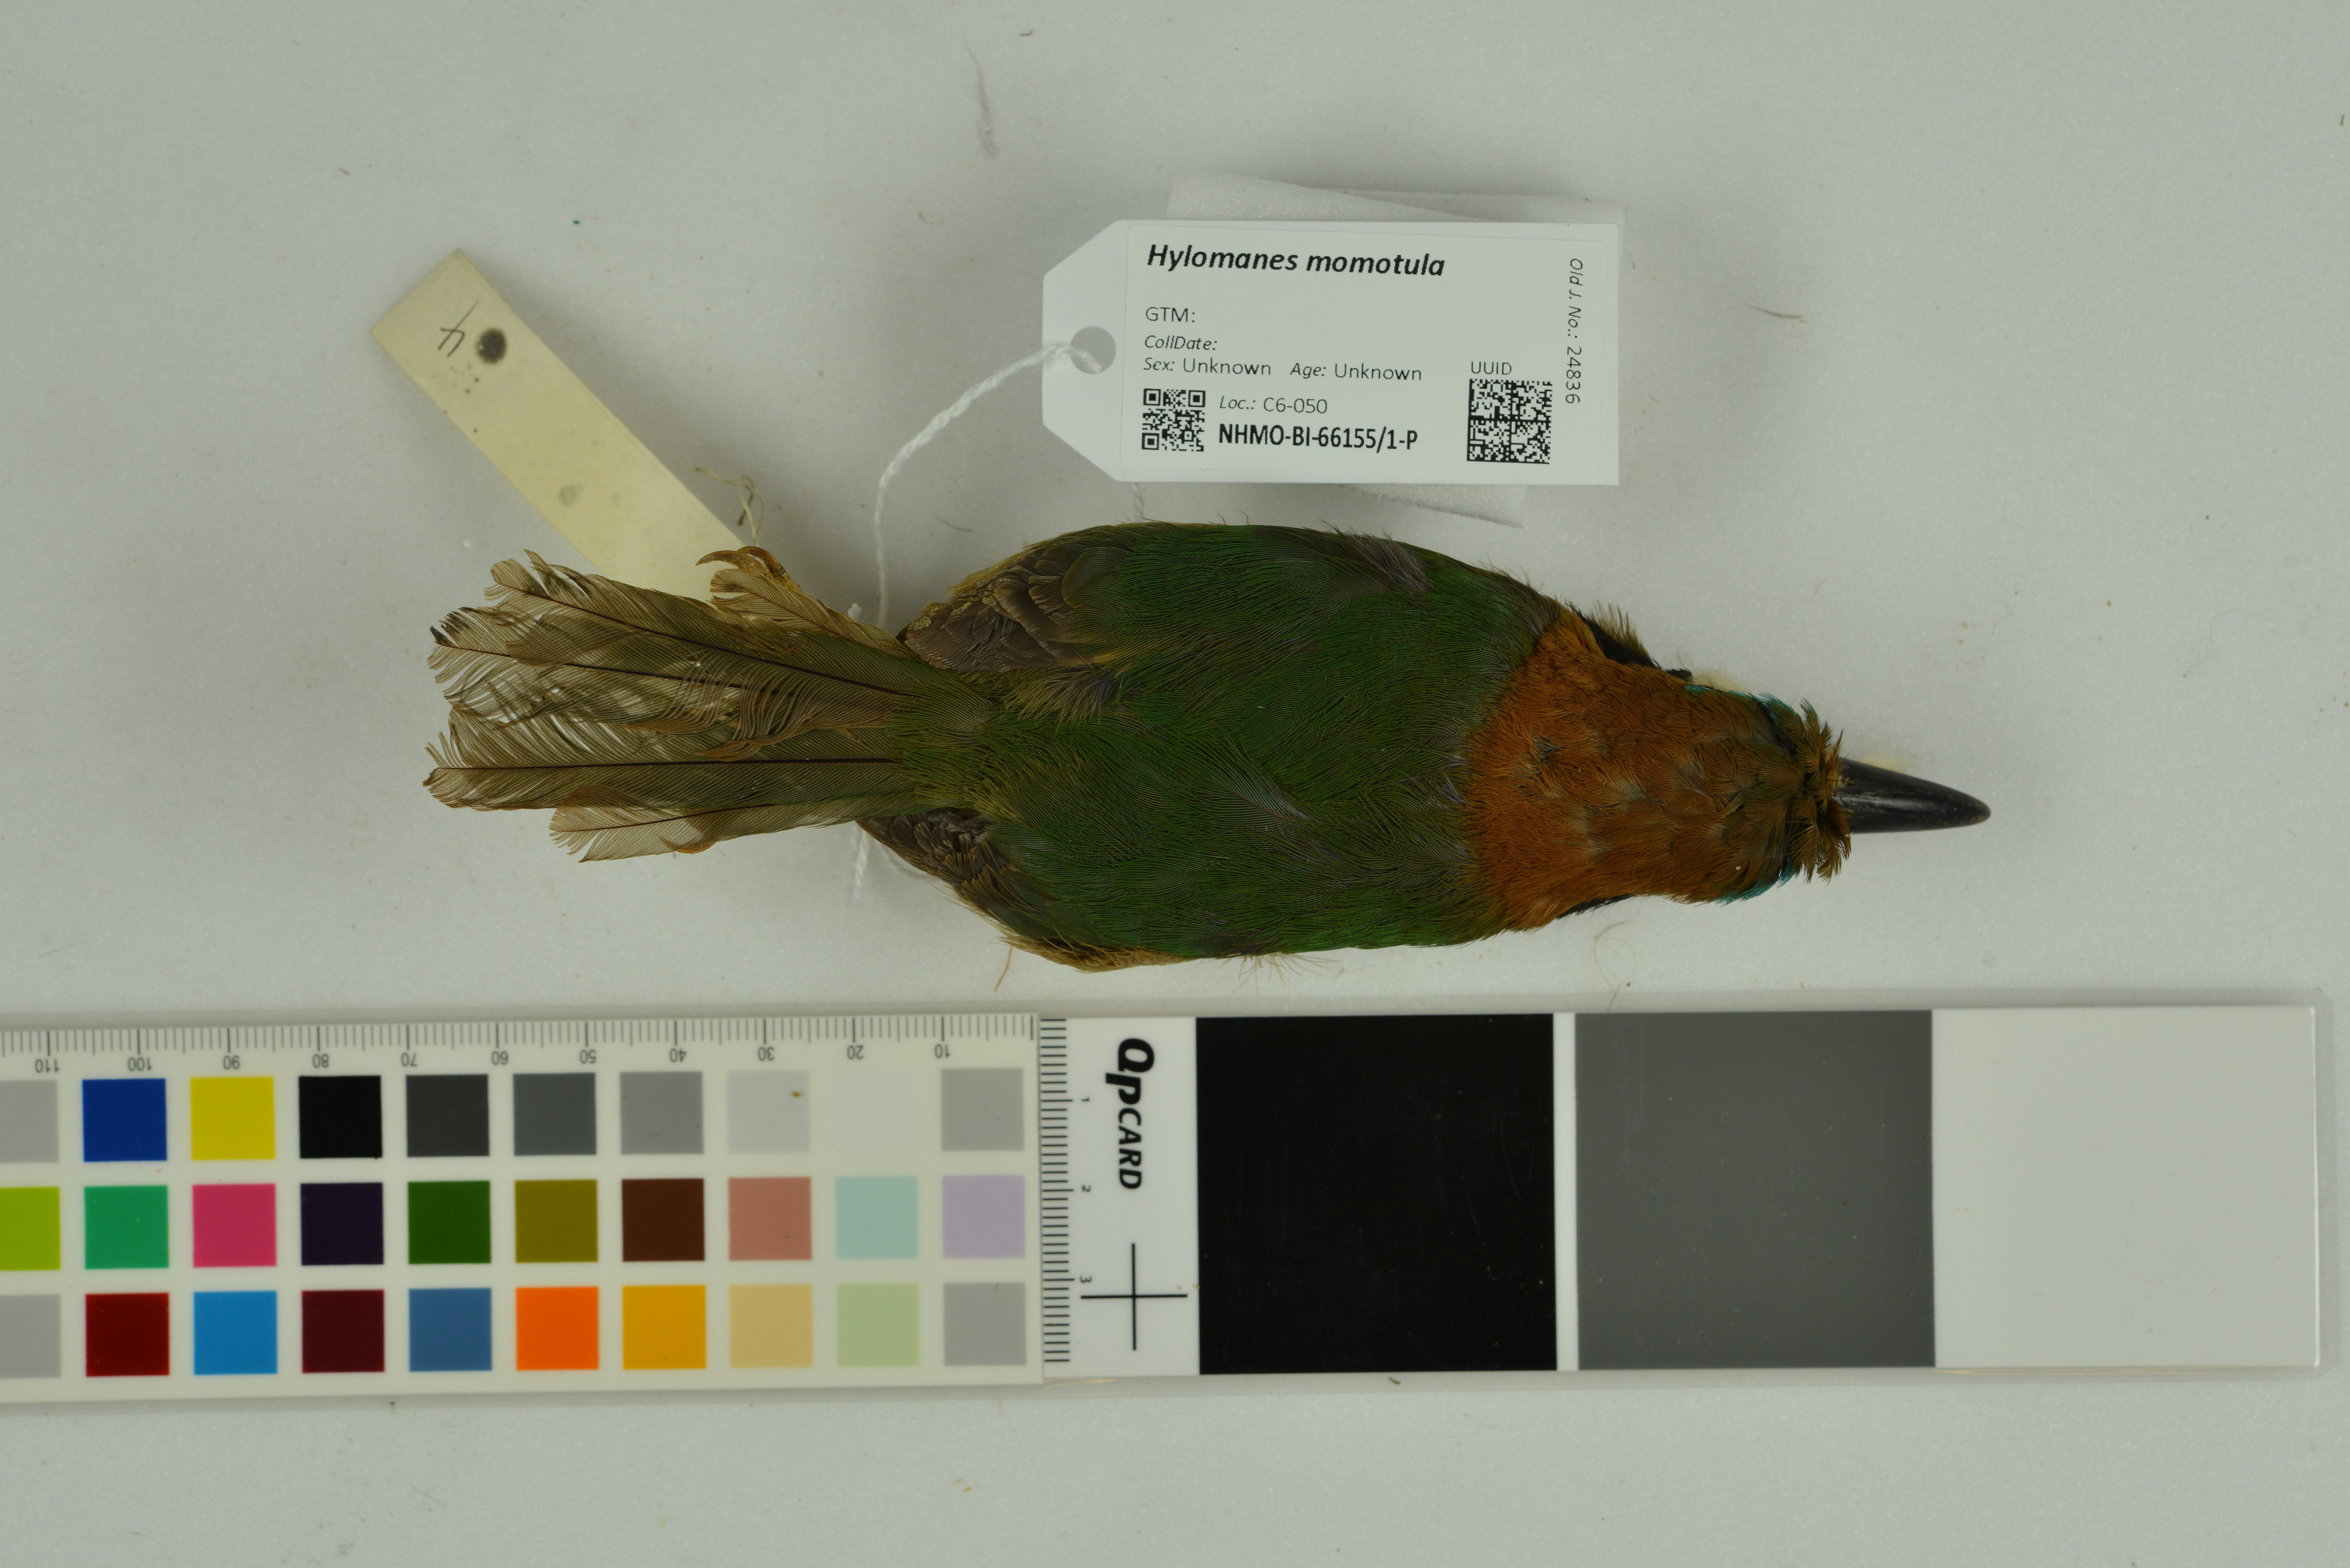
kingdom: Animalia
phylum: Chordata
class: Aves
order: Coraciiformes
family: Momotidae
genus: Hylomanes
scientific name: Hylomanes momotula
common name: Tody motmot
